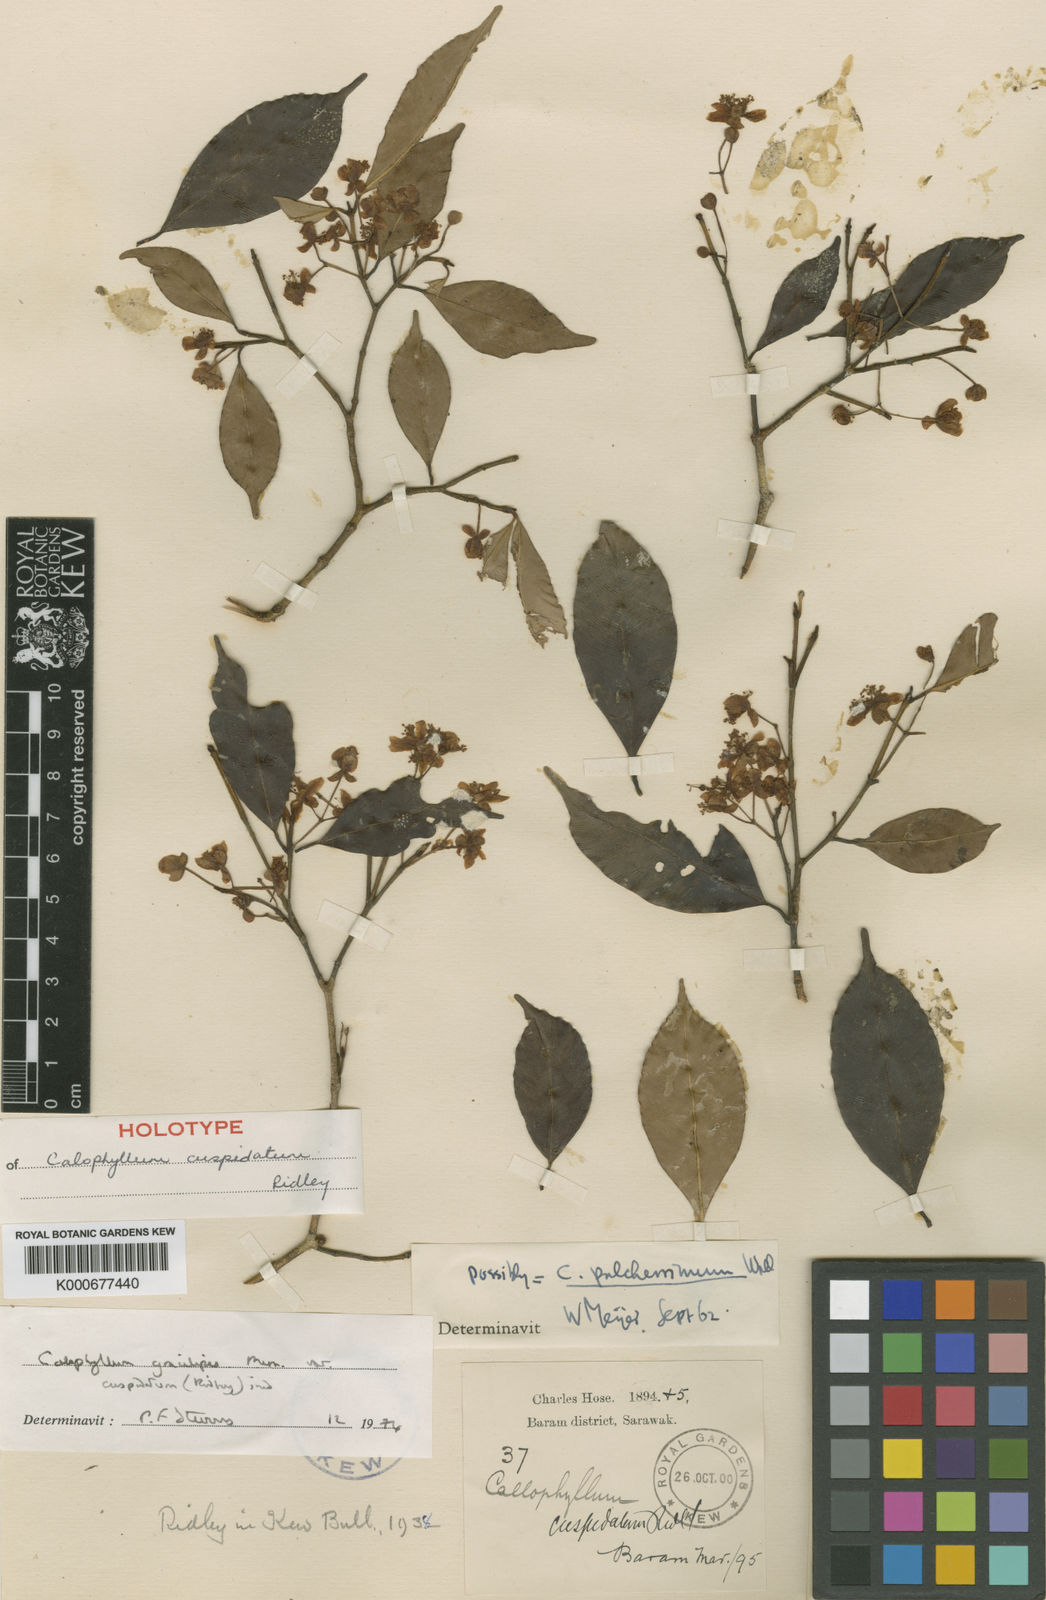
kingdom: Plantae
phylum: Tracheophyta
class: Magnoliopsida
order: Malpighiales
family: Calophyllaceae
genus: Calophyllum
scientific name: Calophyllum gracilipes
